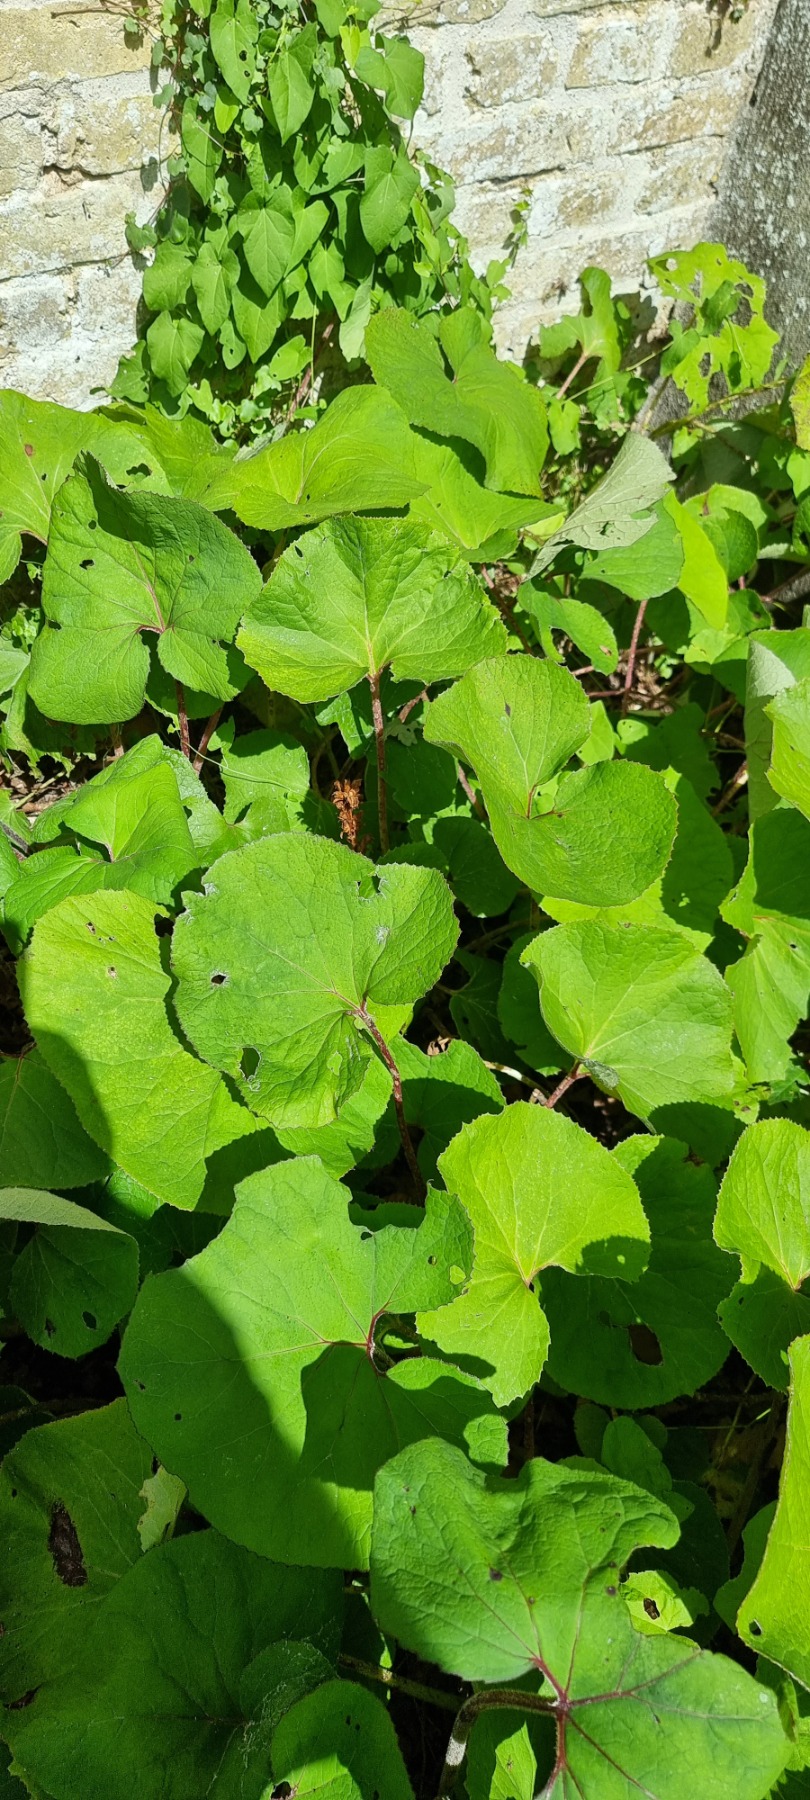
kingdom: Plantae
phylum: Tracheophyta
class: Magnoliopsida
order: Lamiales
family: Orobanchaceae
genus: Orobanche
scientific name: Orobanche flava
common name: Gul gyvelkvæler
